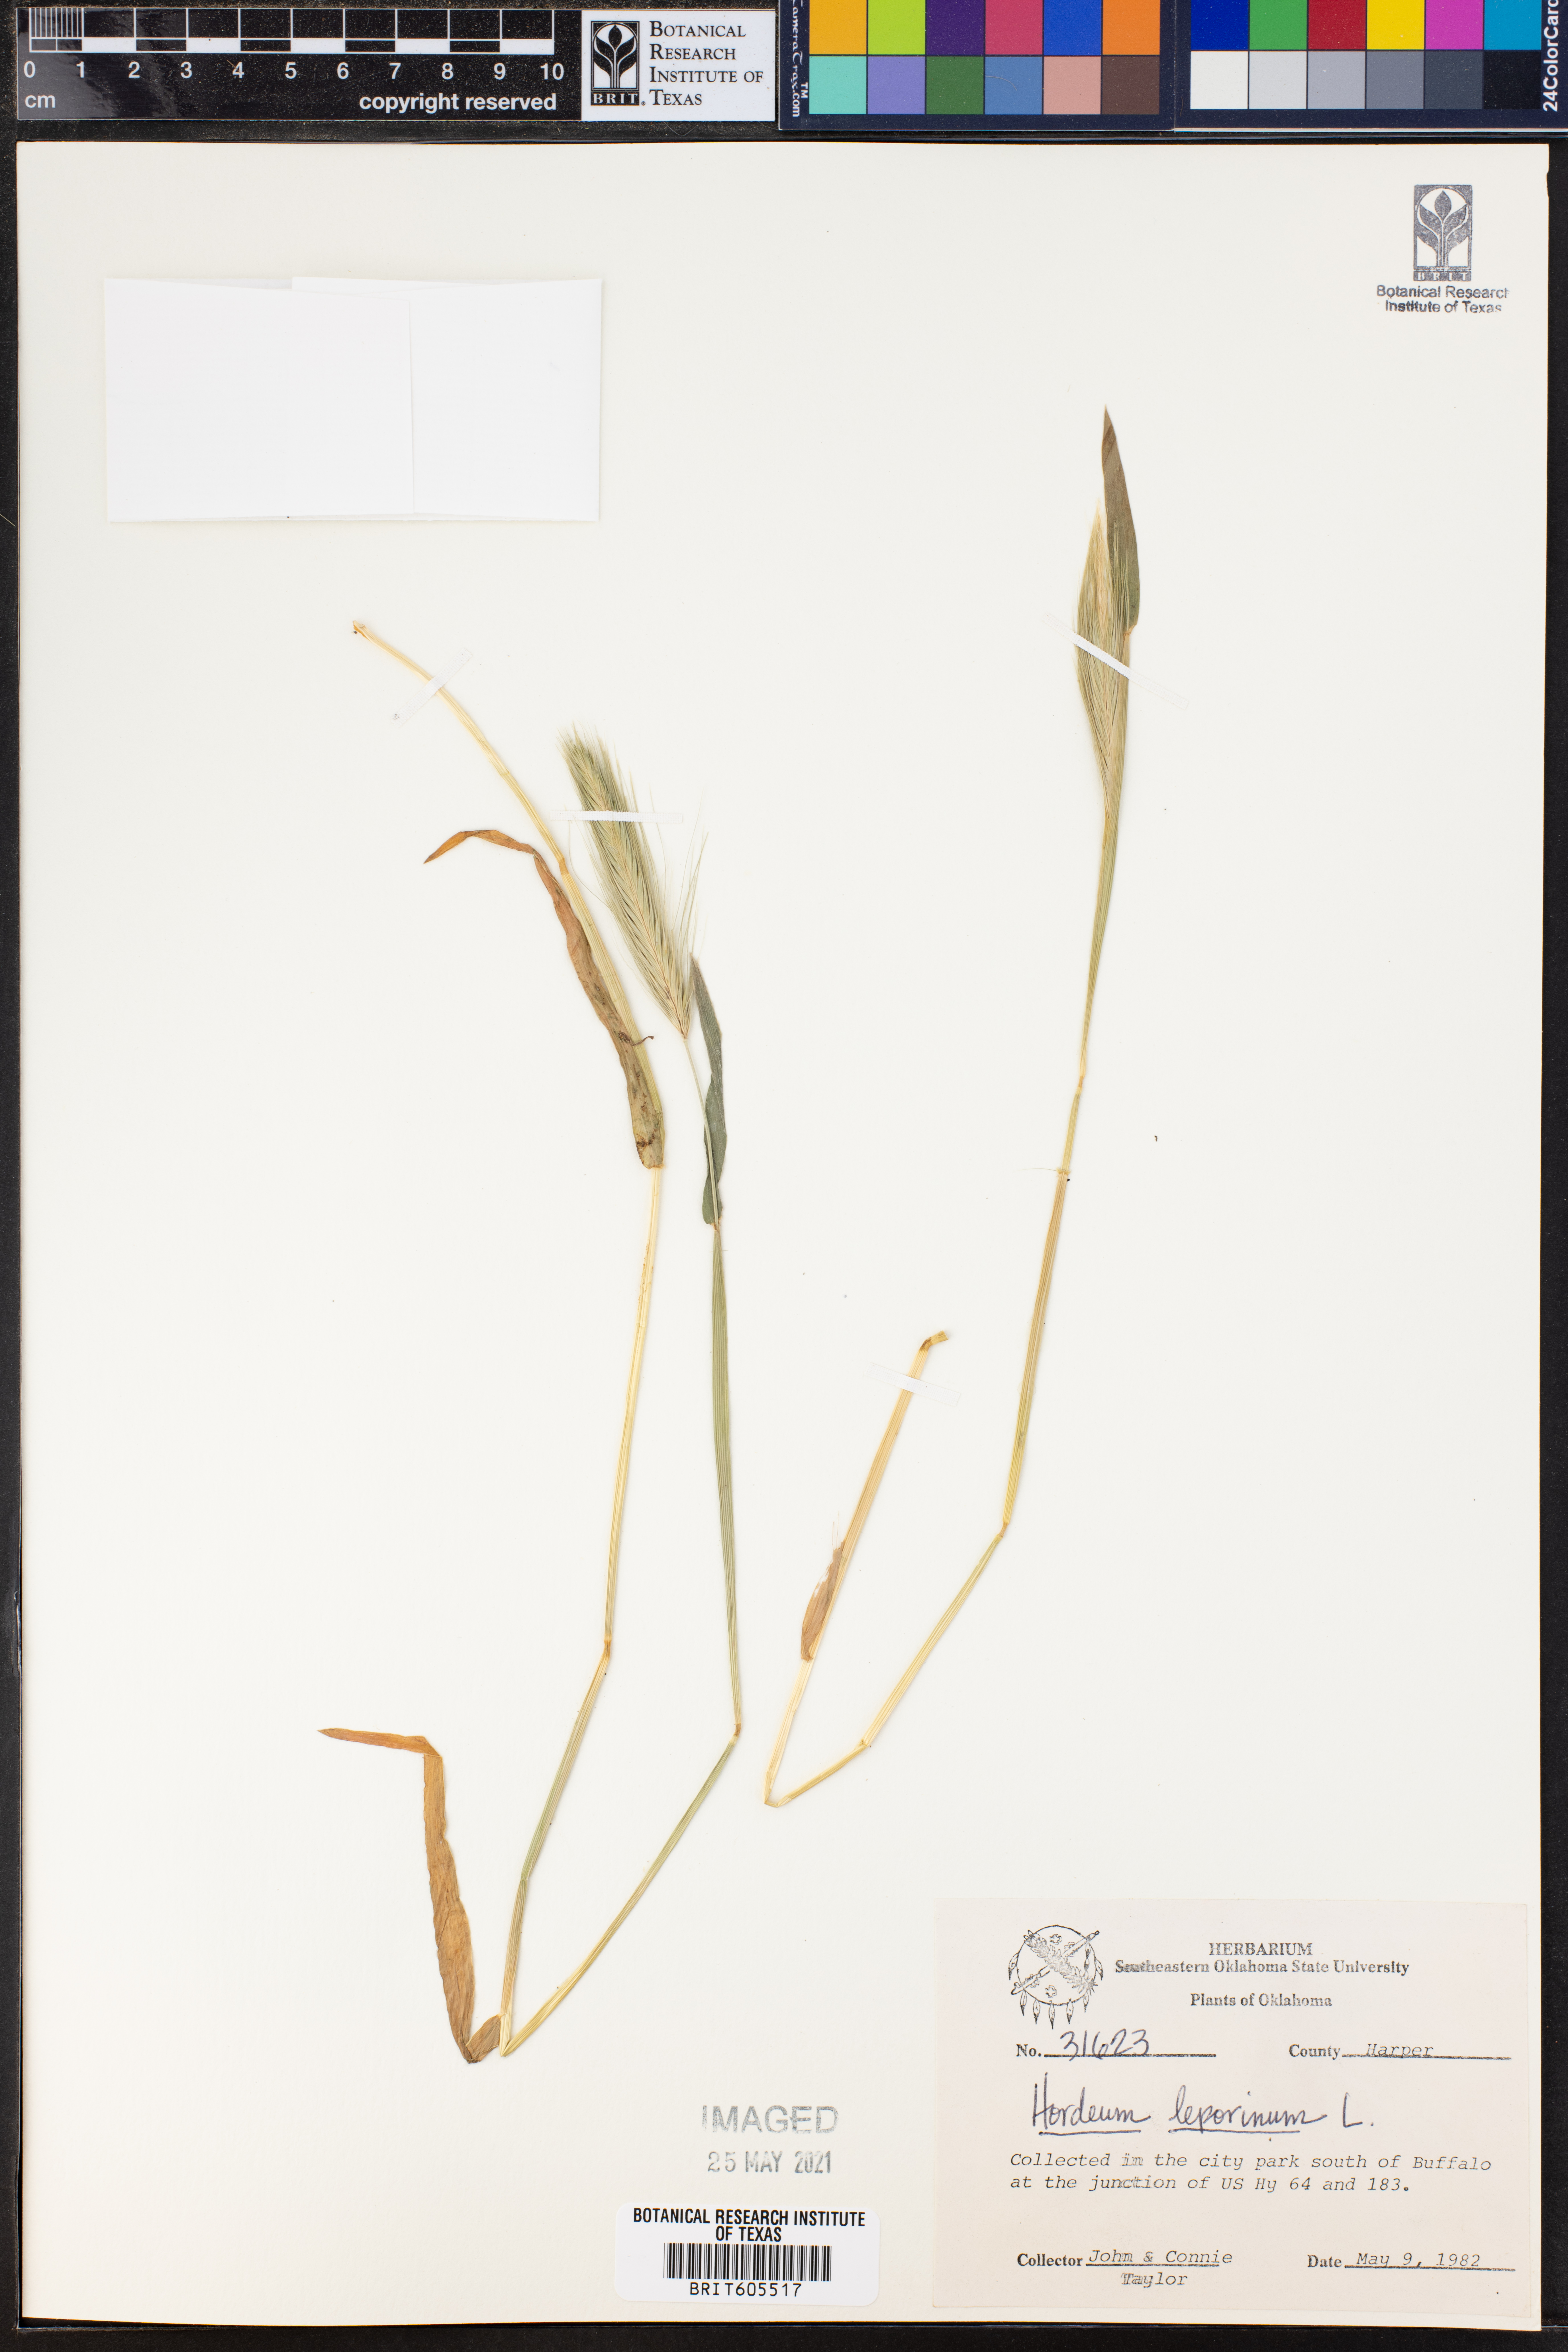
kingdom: Plantae
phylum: Tracheophyta
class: Liliopsida
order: Poales
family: Poaceae
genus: Hordeum
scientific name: Hordeum murinum
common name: Wall barley
